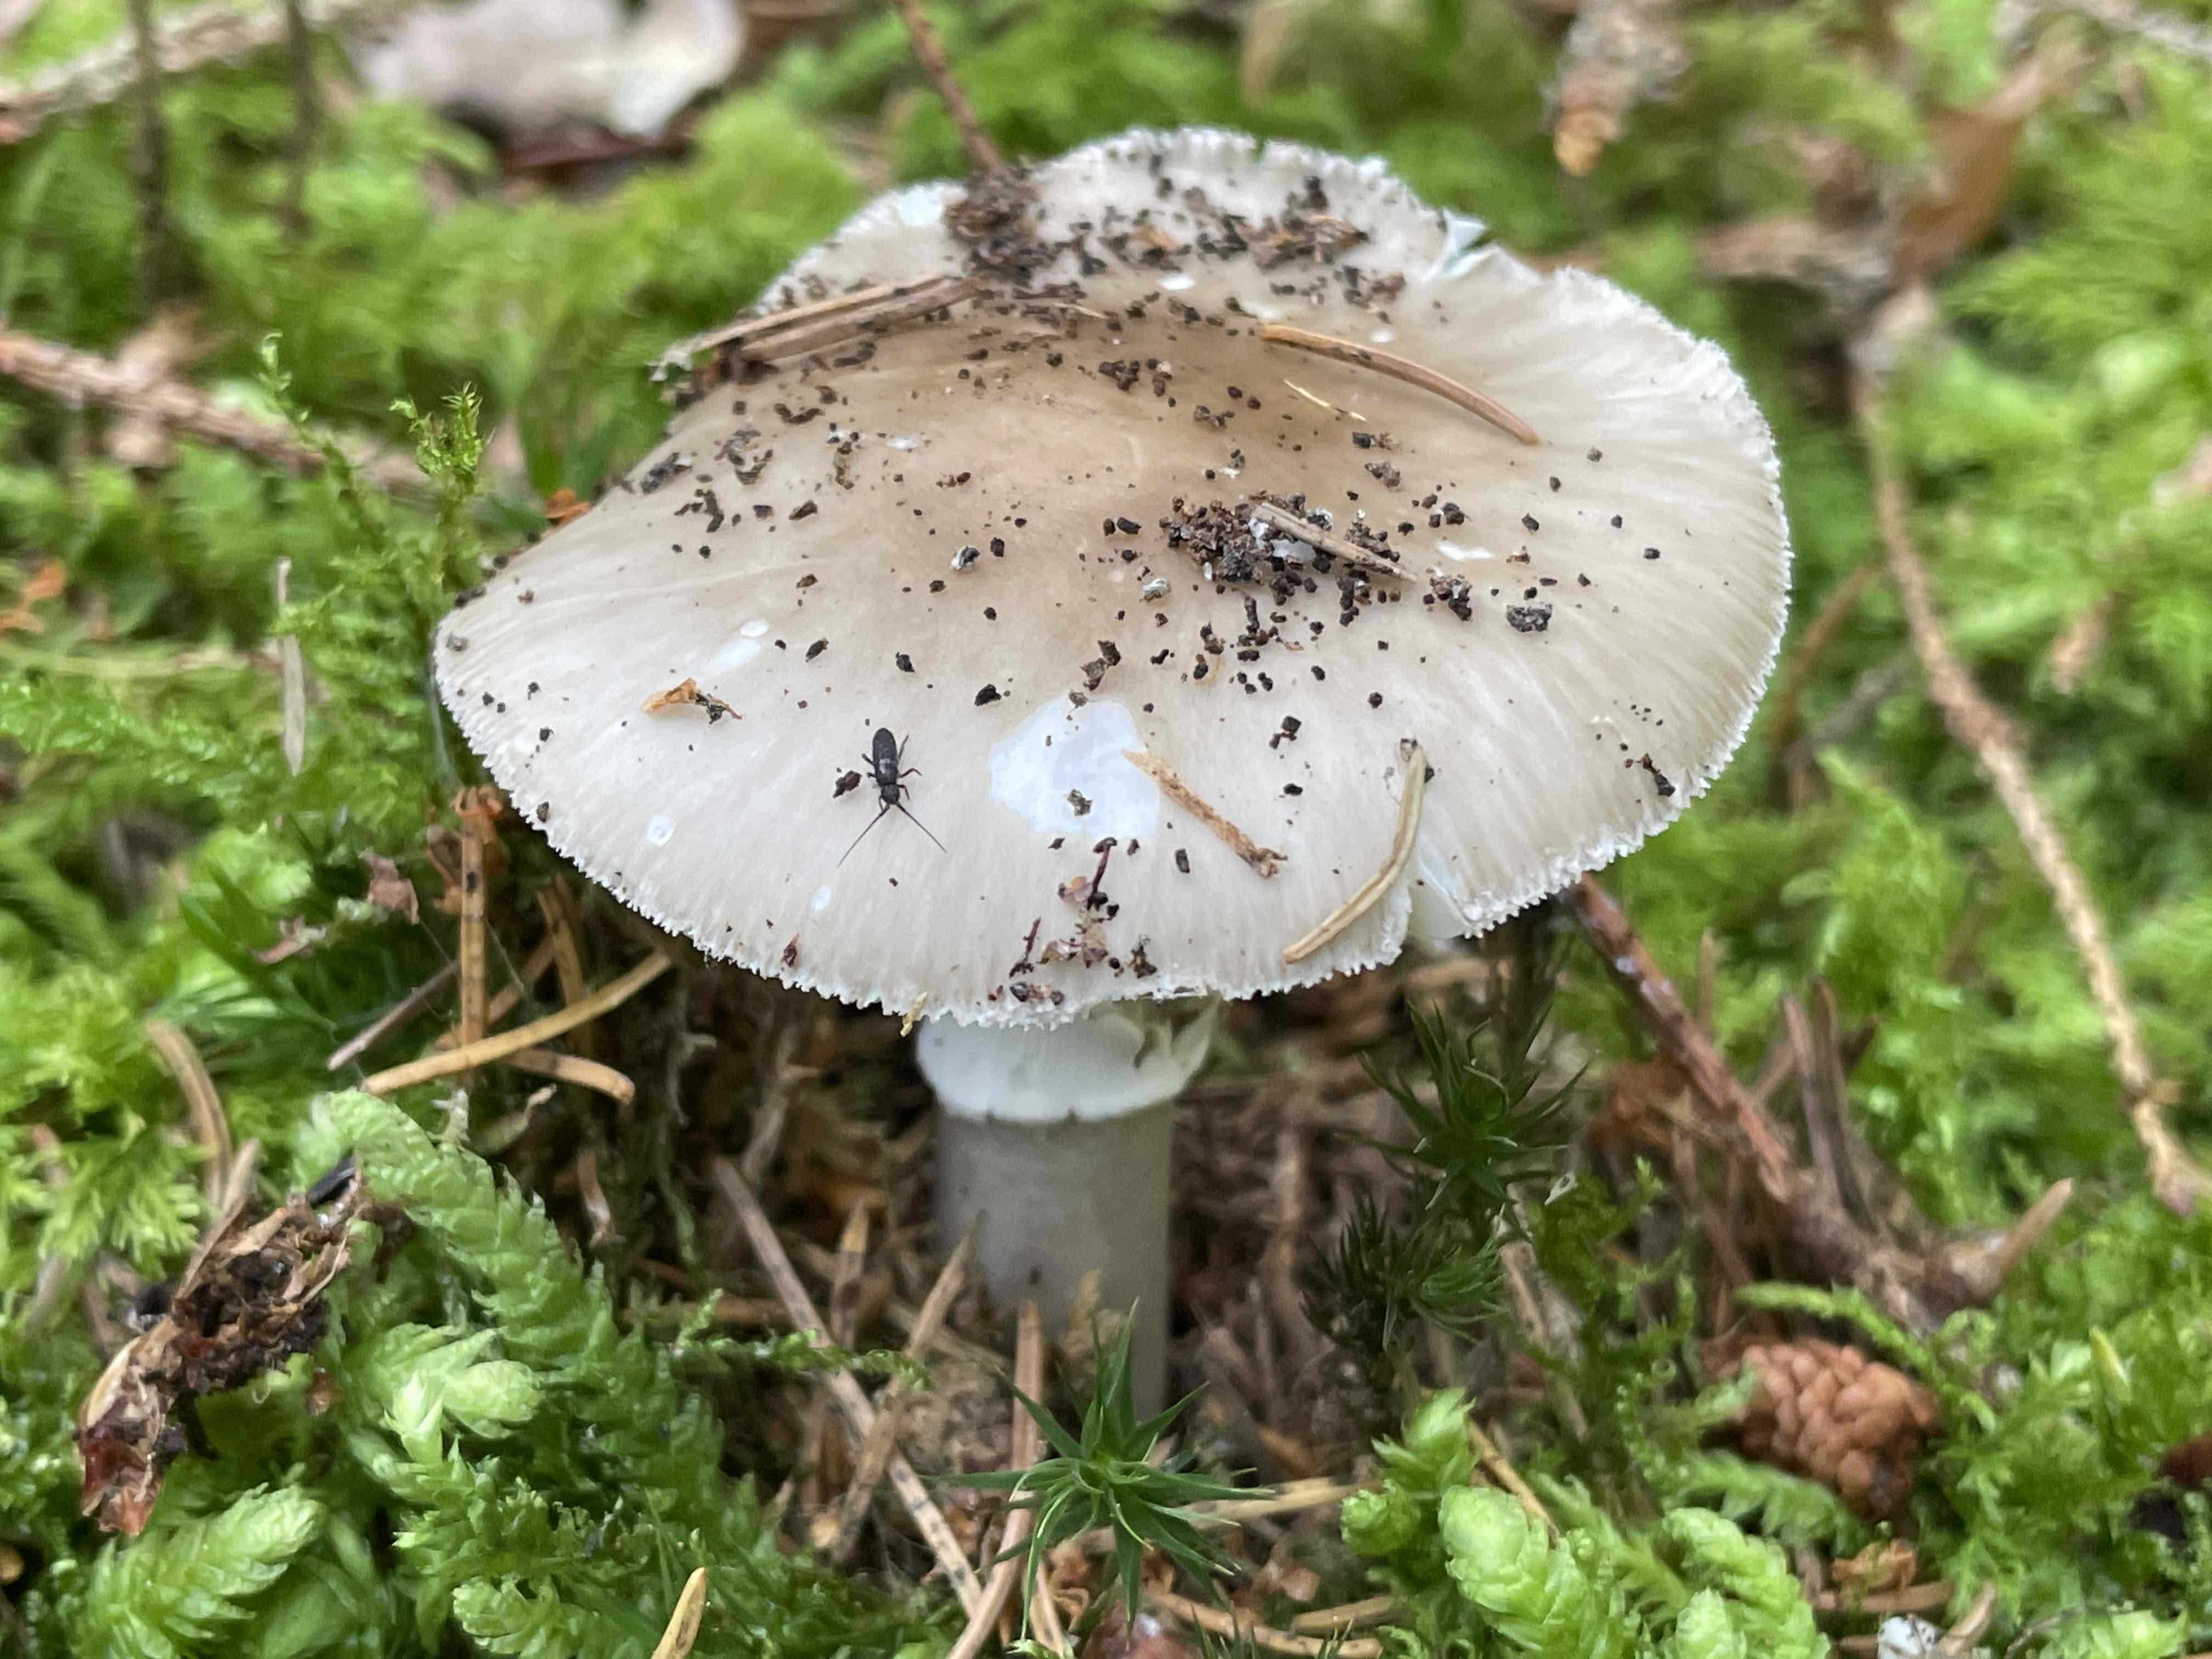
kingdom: Fungi
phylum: Basidiomycota
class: Agaricomycetes
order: Agaricales
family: Amanitaceae
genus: Amanita
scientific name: Amanita
